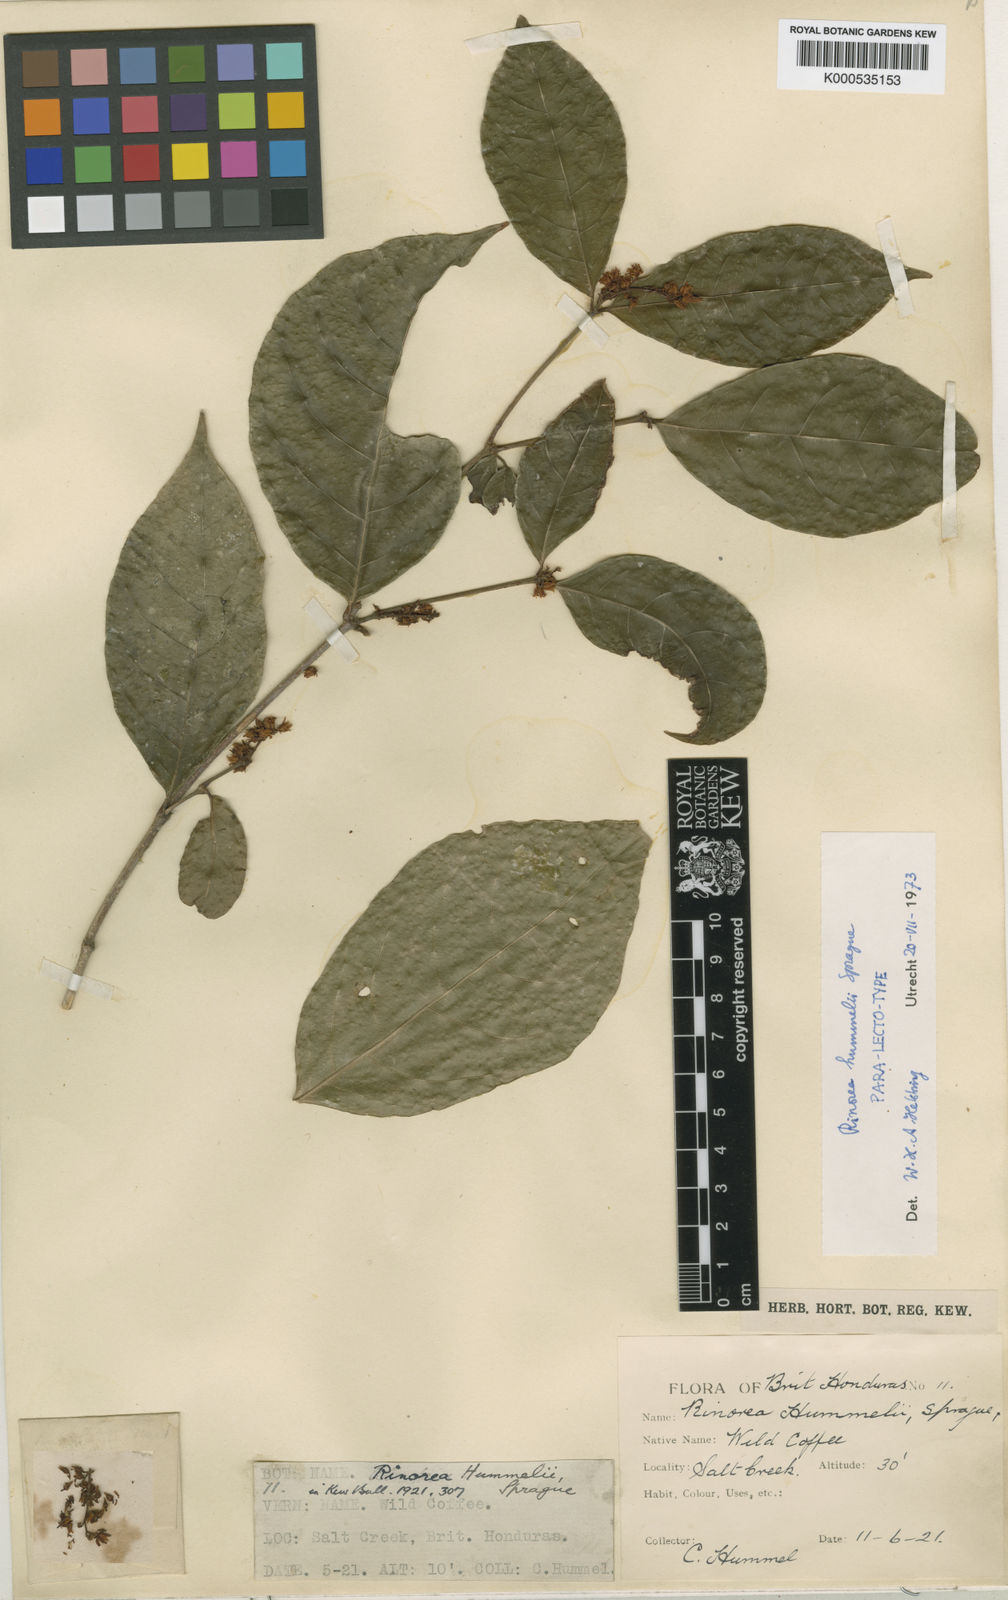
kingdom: Plantae
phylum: Tracheophyta
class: Magnoliopsida
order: Malpighiales
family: Violaceae
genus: Rinorea
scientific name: Rinorea hummelii
